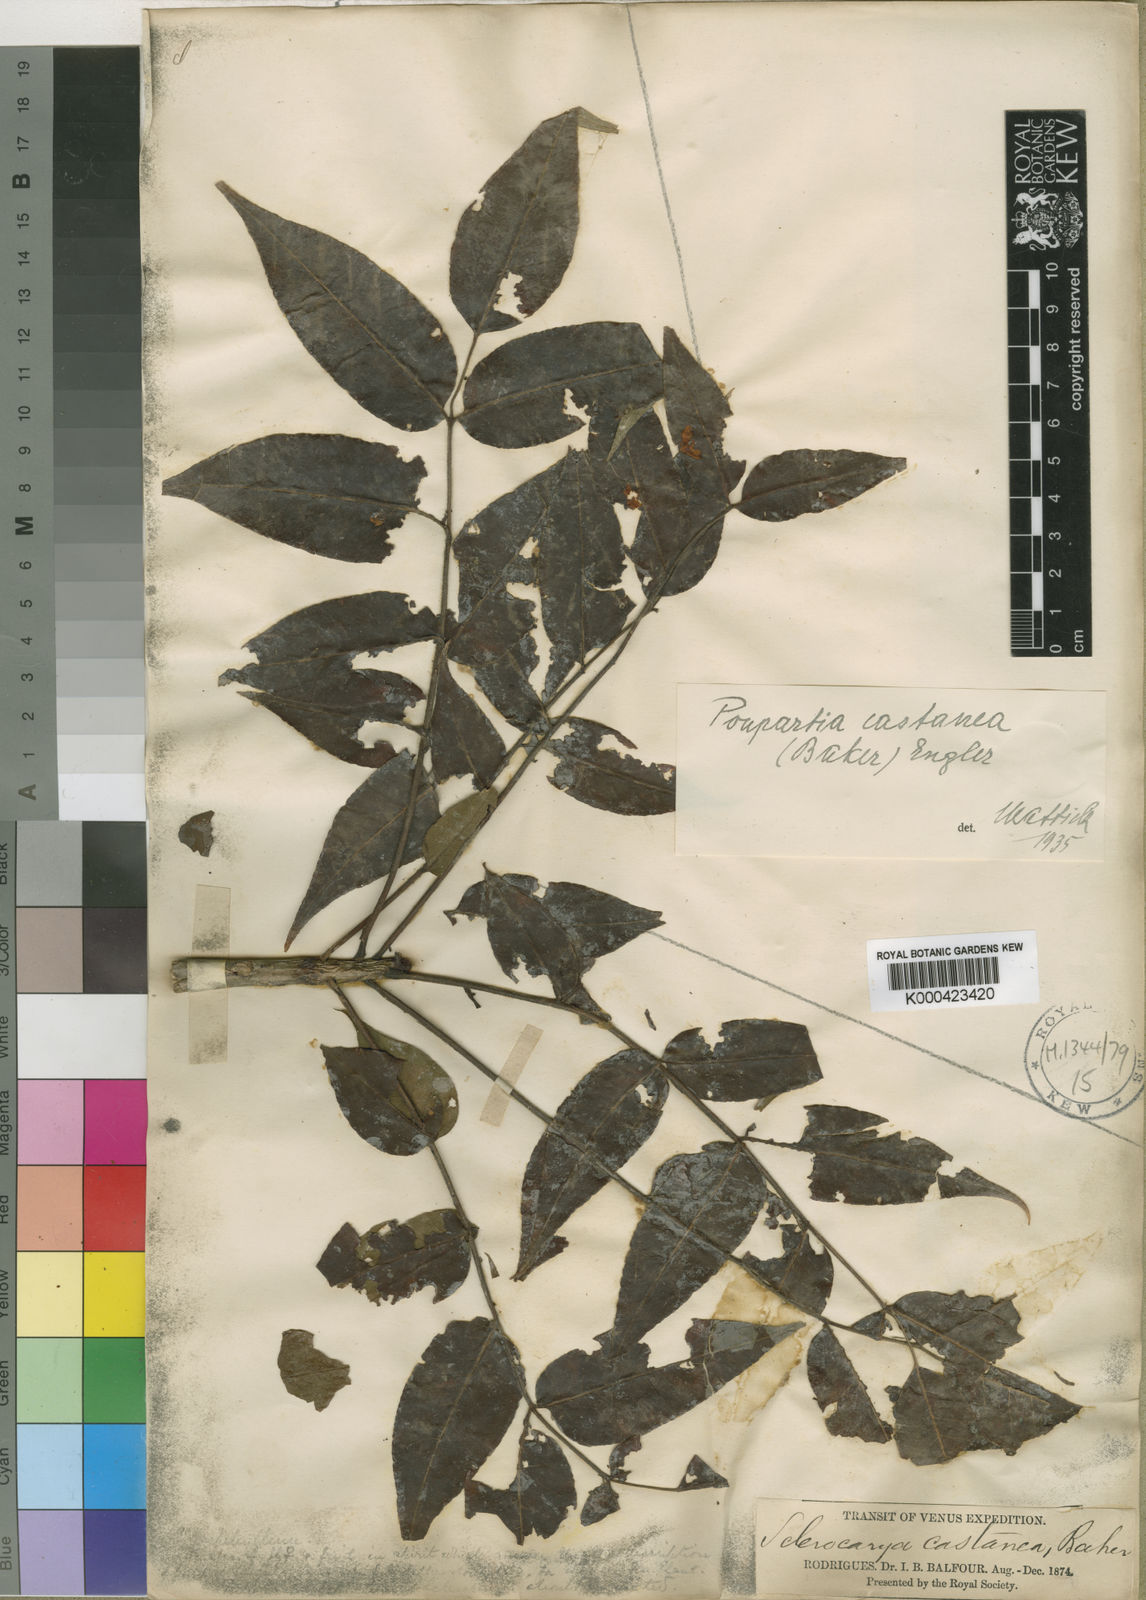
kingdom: Plantae
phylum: Tracheophyta
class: Magnoliopsida
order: Sapindales
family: Anacardiaceae
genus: Poupartia
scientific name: Poupartia castanea
